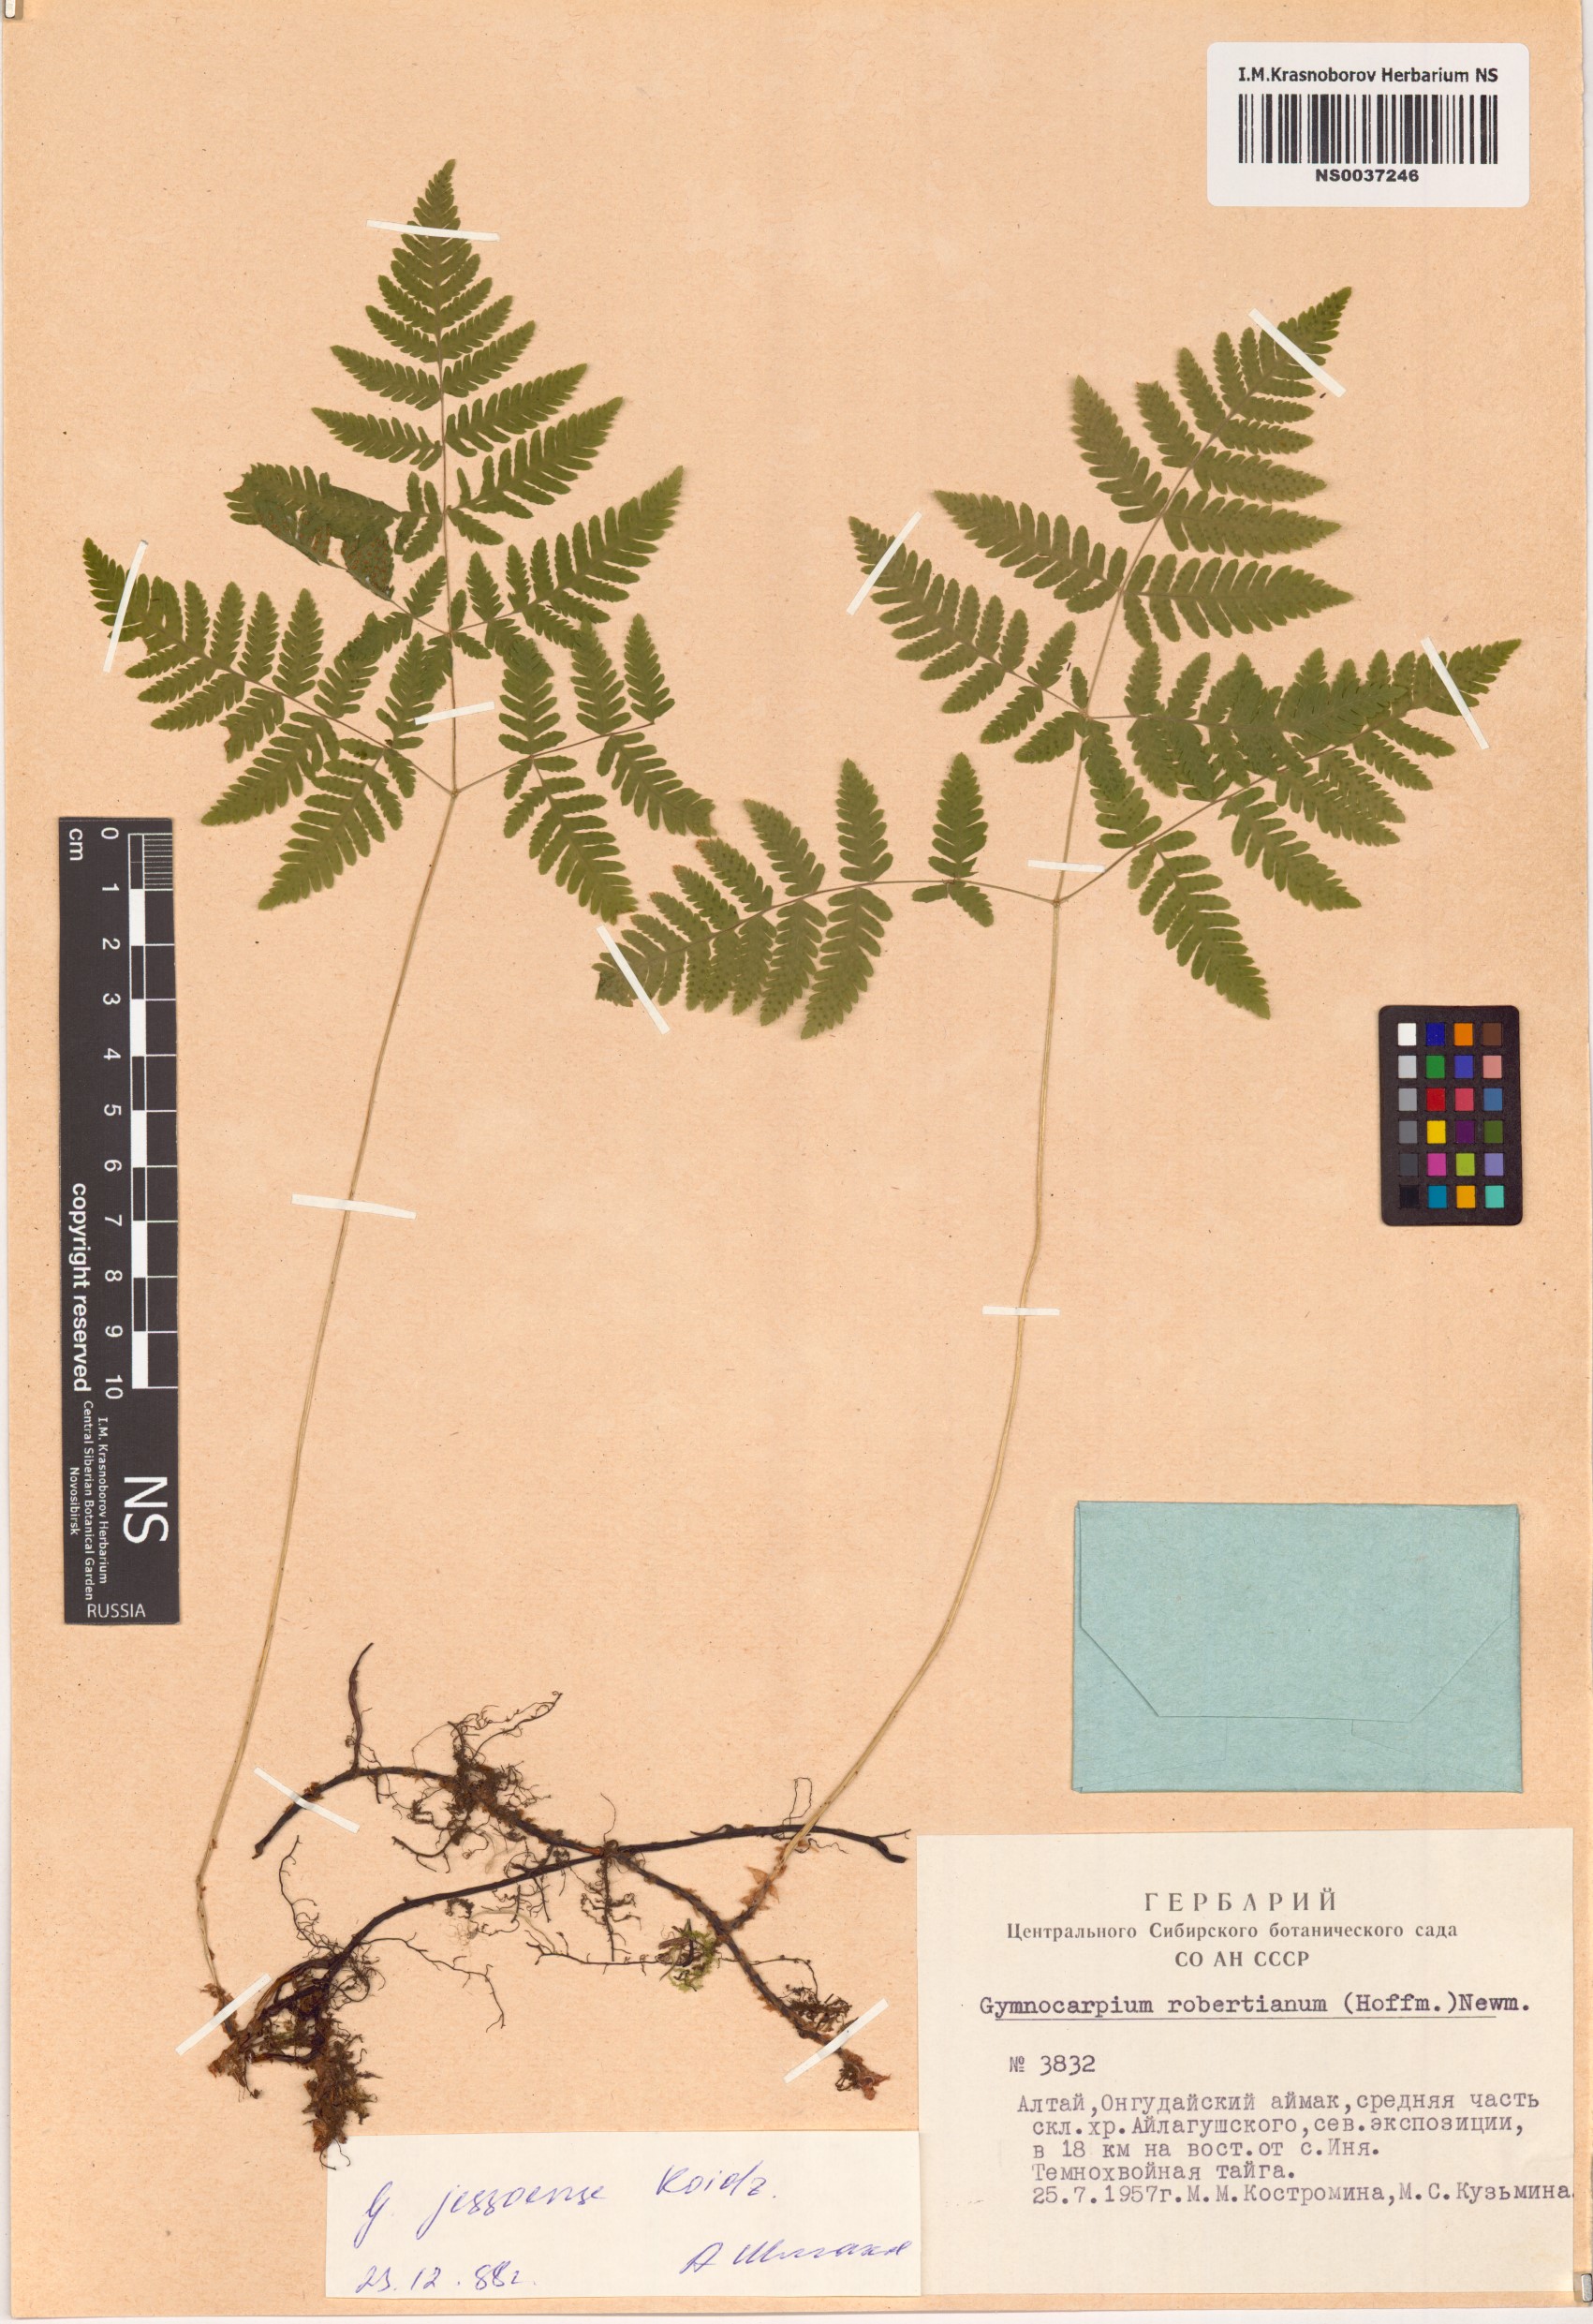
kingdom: Plantae
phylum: Tracheophyta
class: Polypodiopsida
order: Polypodiales
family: Cystopteridaceae
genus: Gymnocarpium
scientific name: Gymnocarpium jessoense
